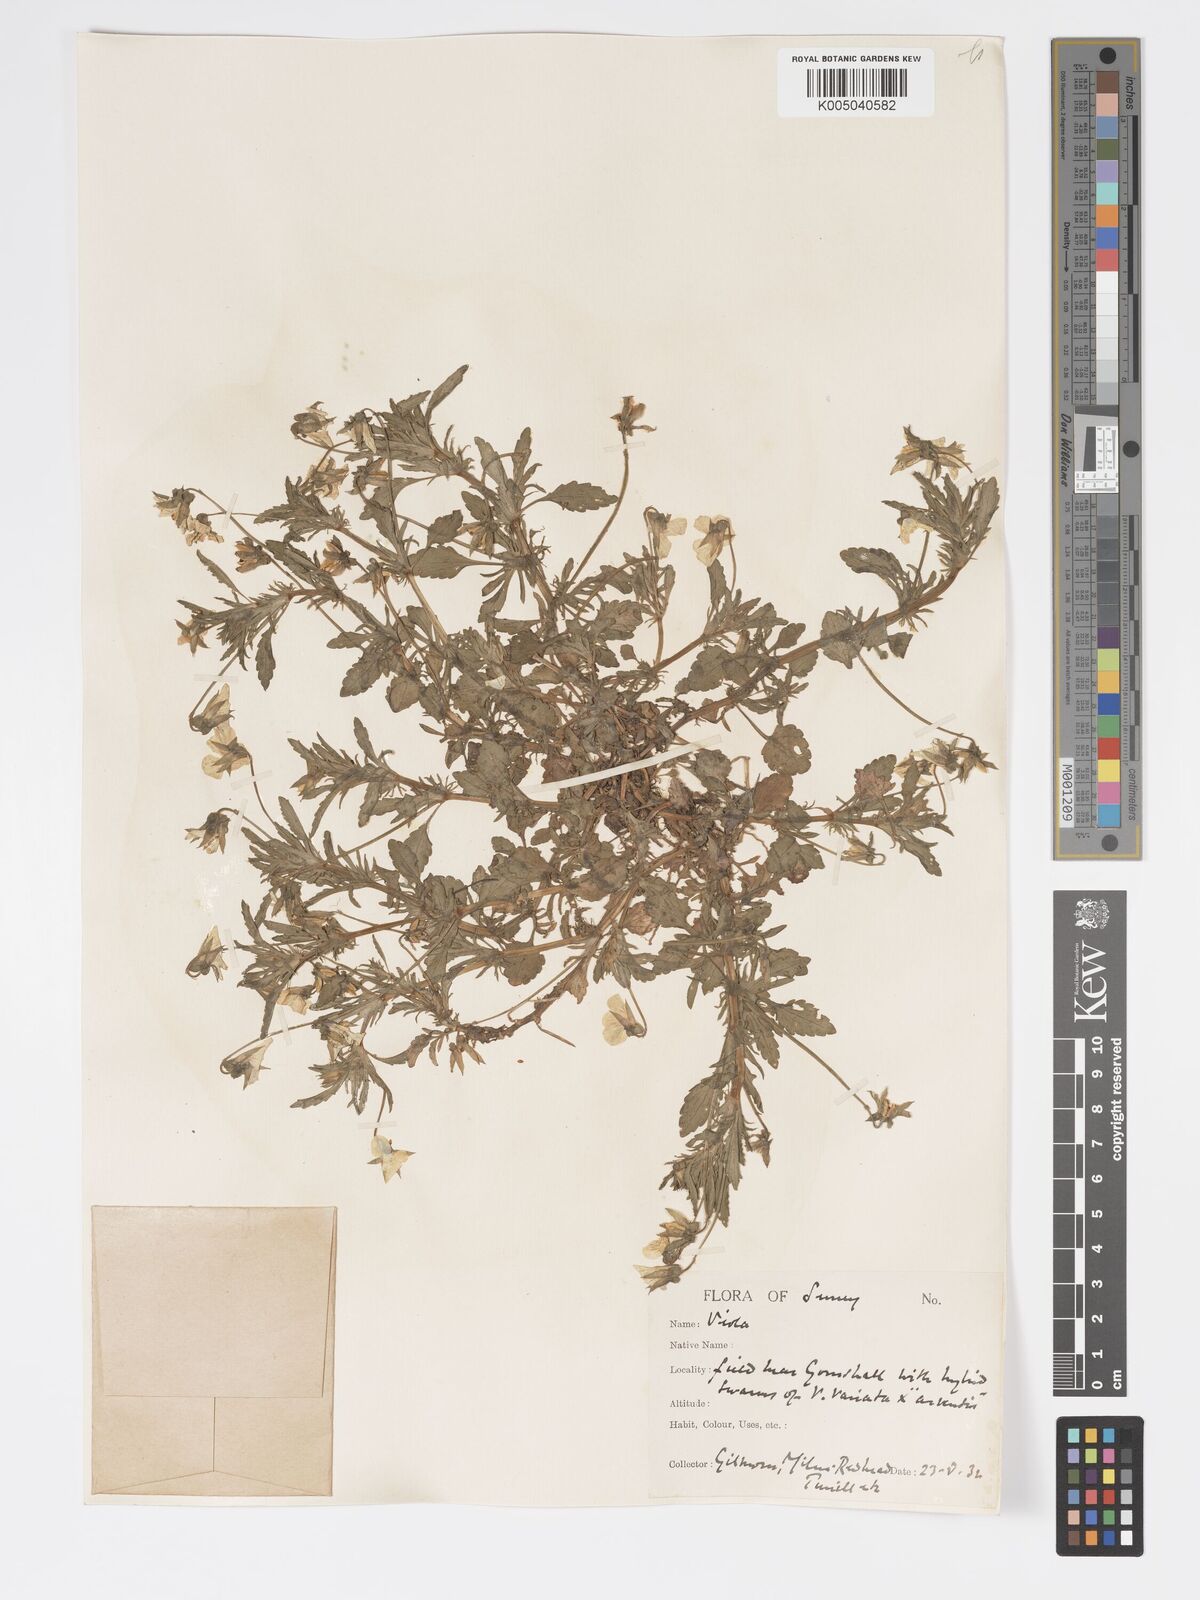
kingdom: Plantae
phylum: Tracheophyta
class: Magnoliopsida
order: Malpighiales
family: Violaceae
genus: Viola
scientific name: Viola
